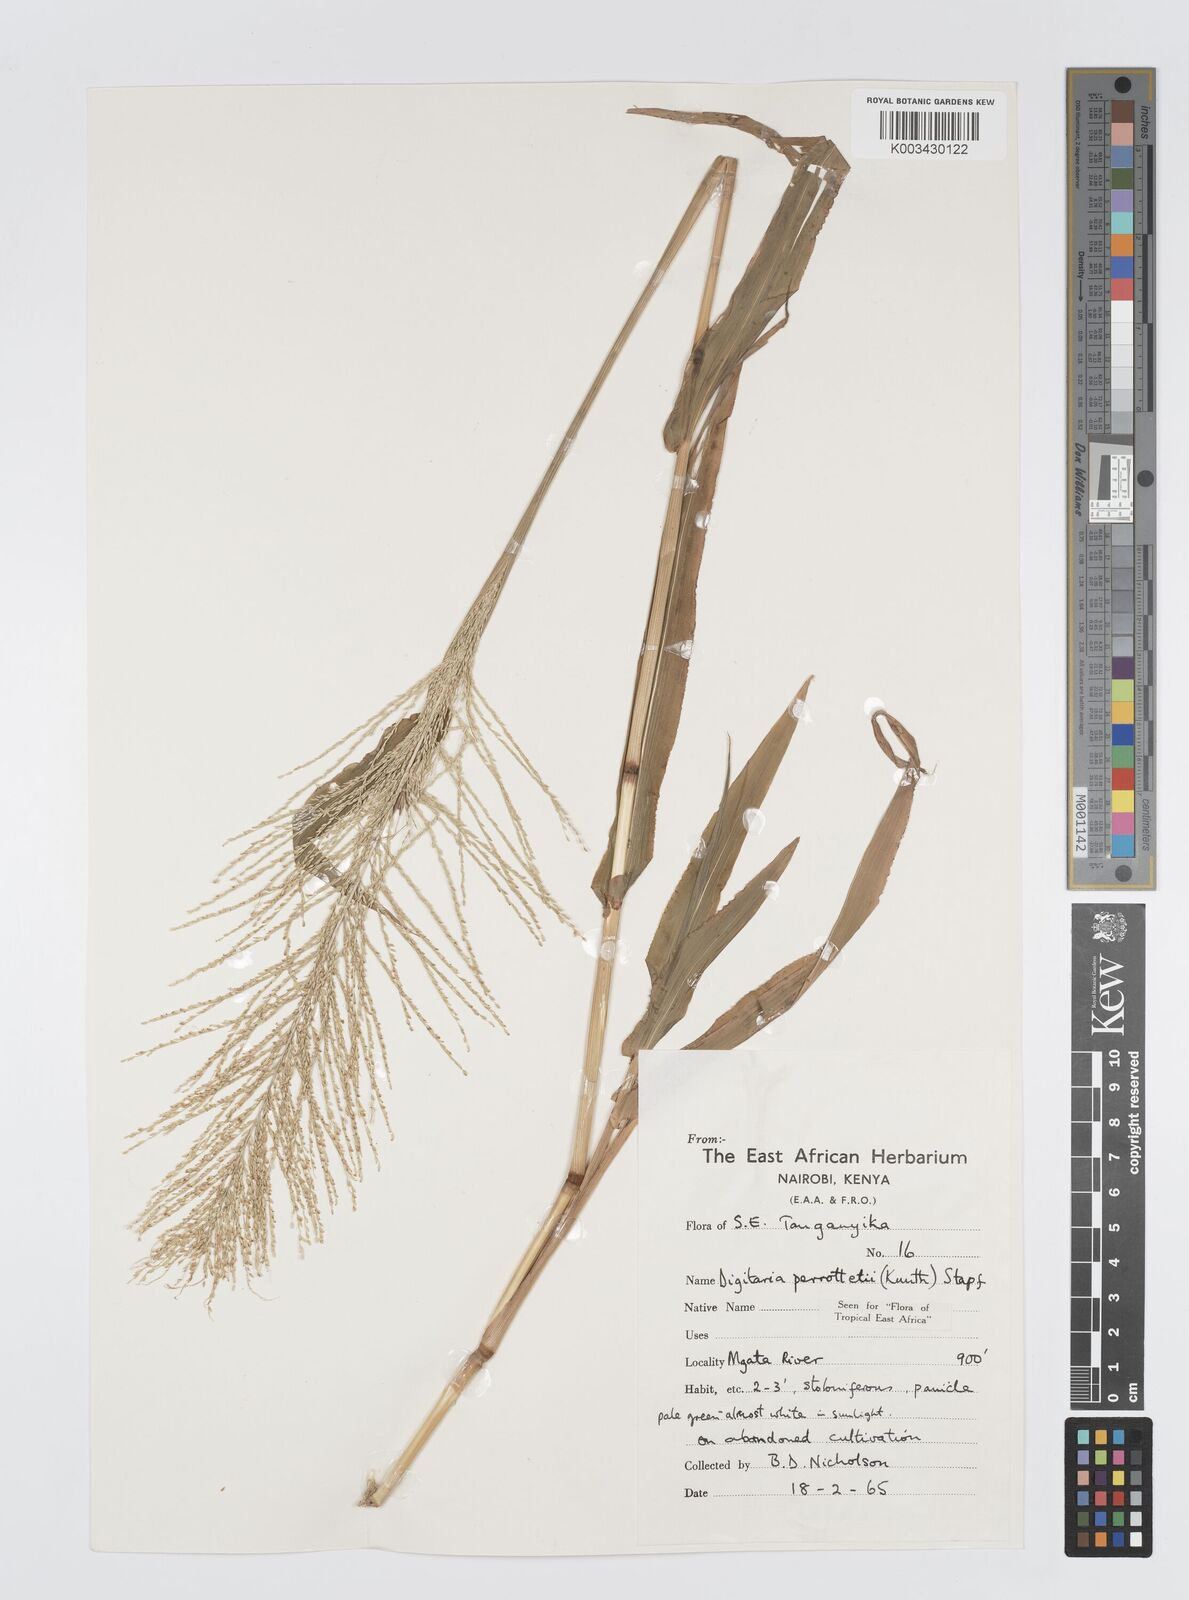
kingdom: Plantae
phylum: Tracheophyta
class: Liliopsida
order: Poales
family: Poaceae
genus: Digitaria
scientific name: Digitaria perrottetii
